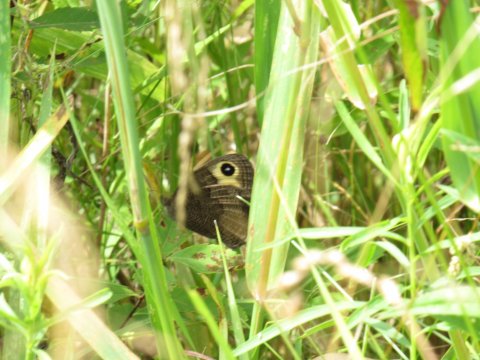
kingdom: Animalia
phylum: Arthropoda
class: Insecta
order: Lepidoptera
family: Nymphalidae
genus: Cercyonis
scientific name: Cercyonis pegala
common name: Common Wood-Nymph
